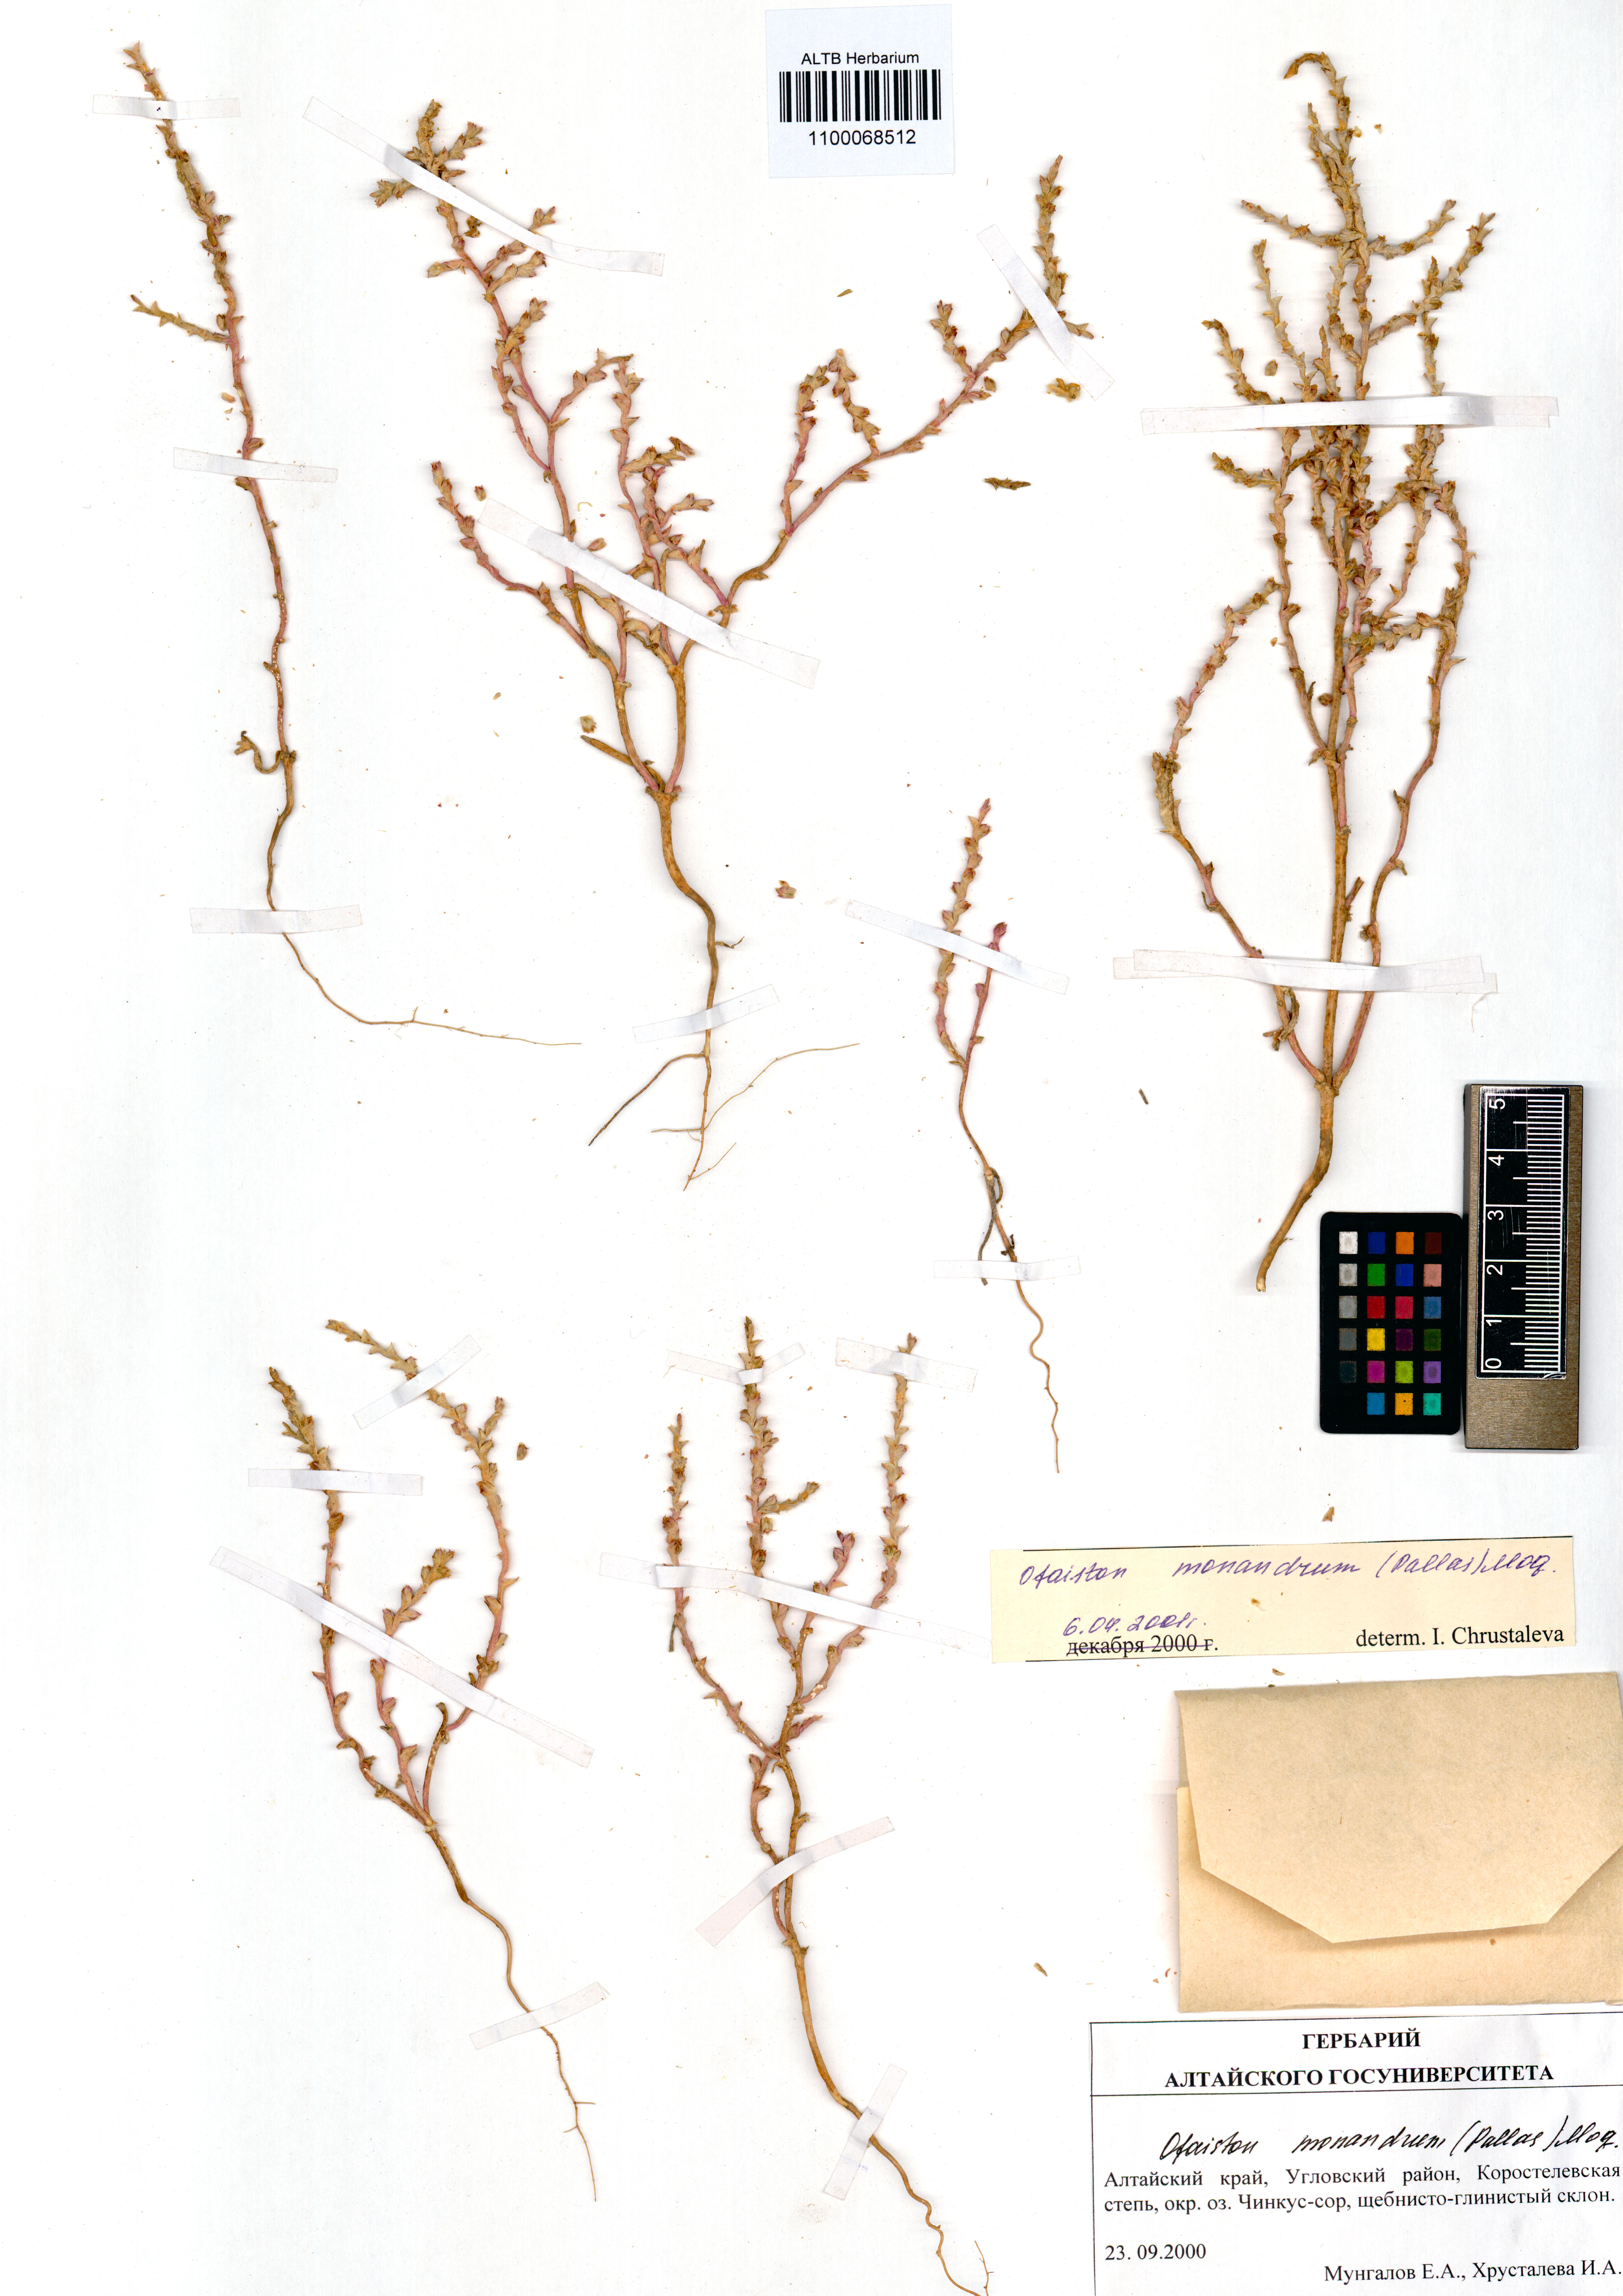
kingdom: Plantae
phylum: Tracheophyta
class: Magnoliopsida
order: Caryophyllales
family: Amaranthaceae
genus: Ofaiston
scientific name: Ofaiston monandrum
